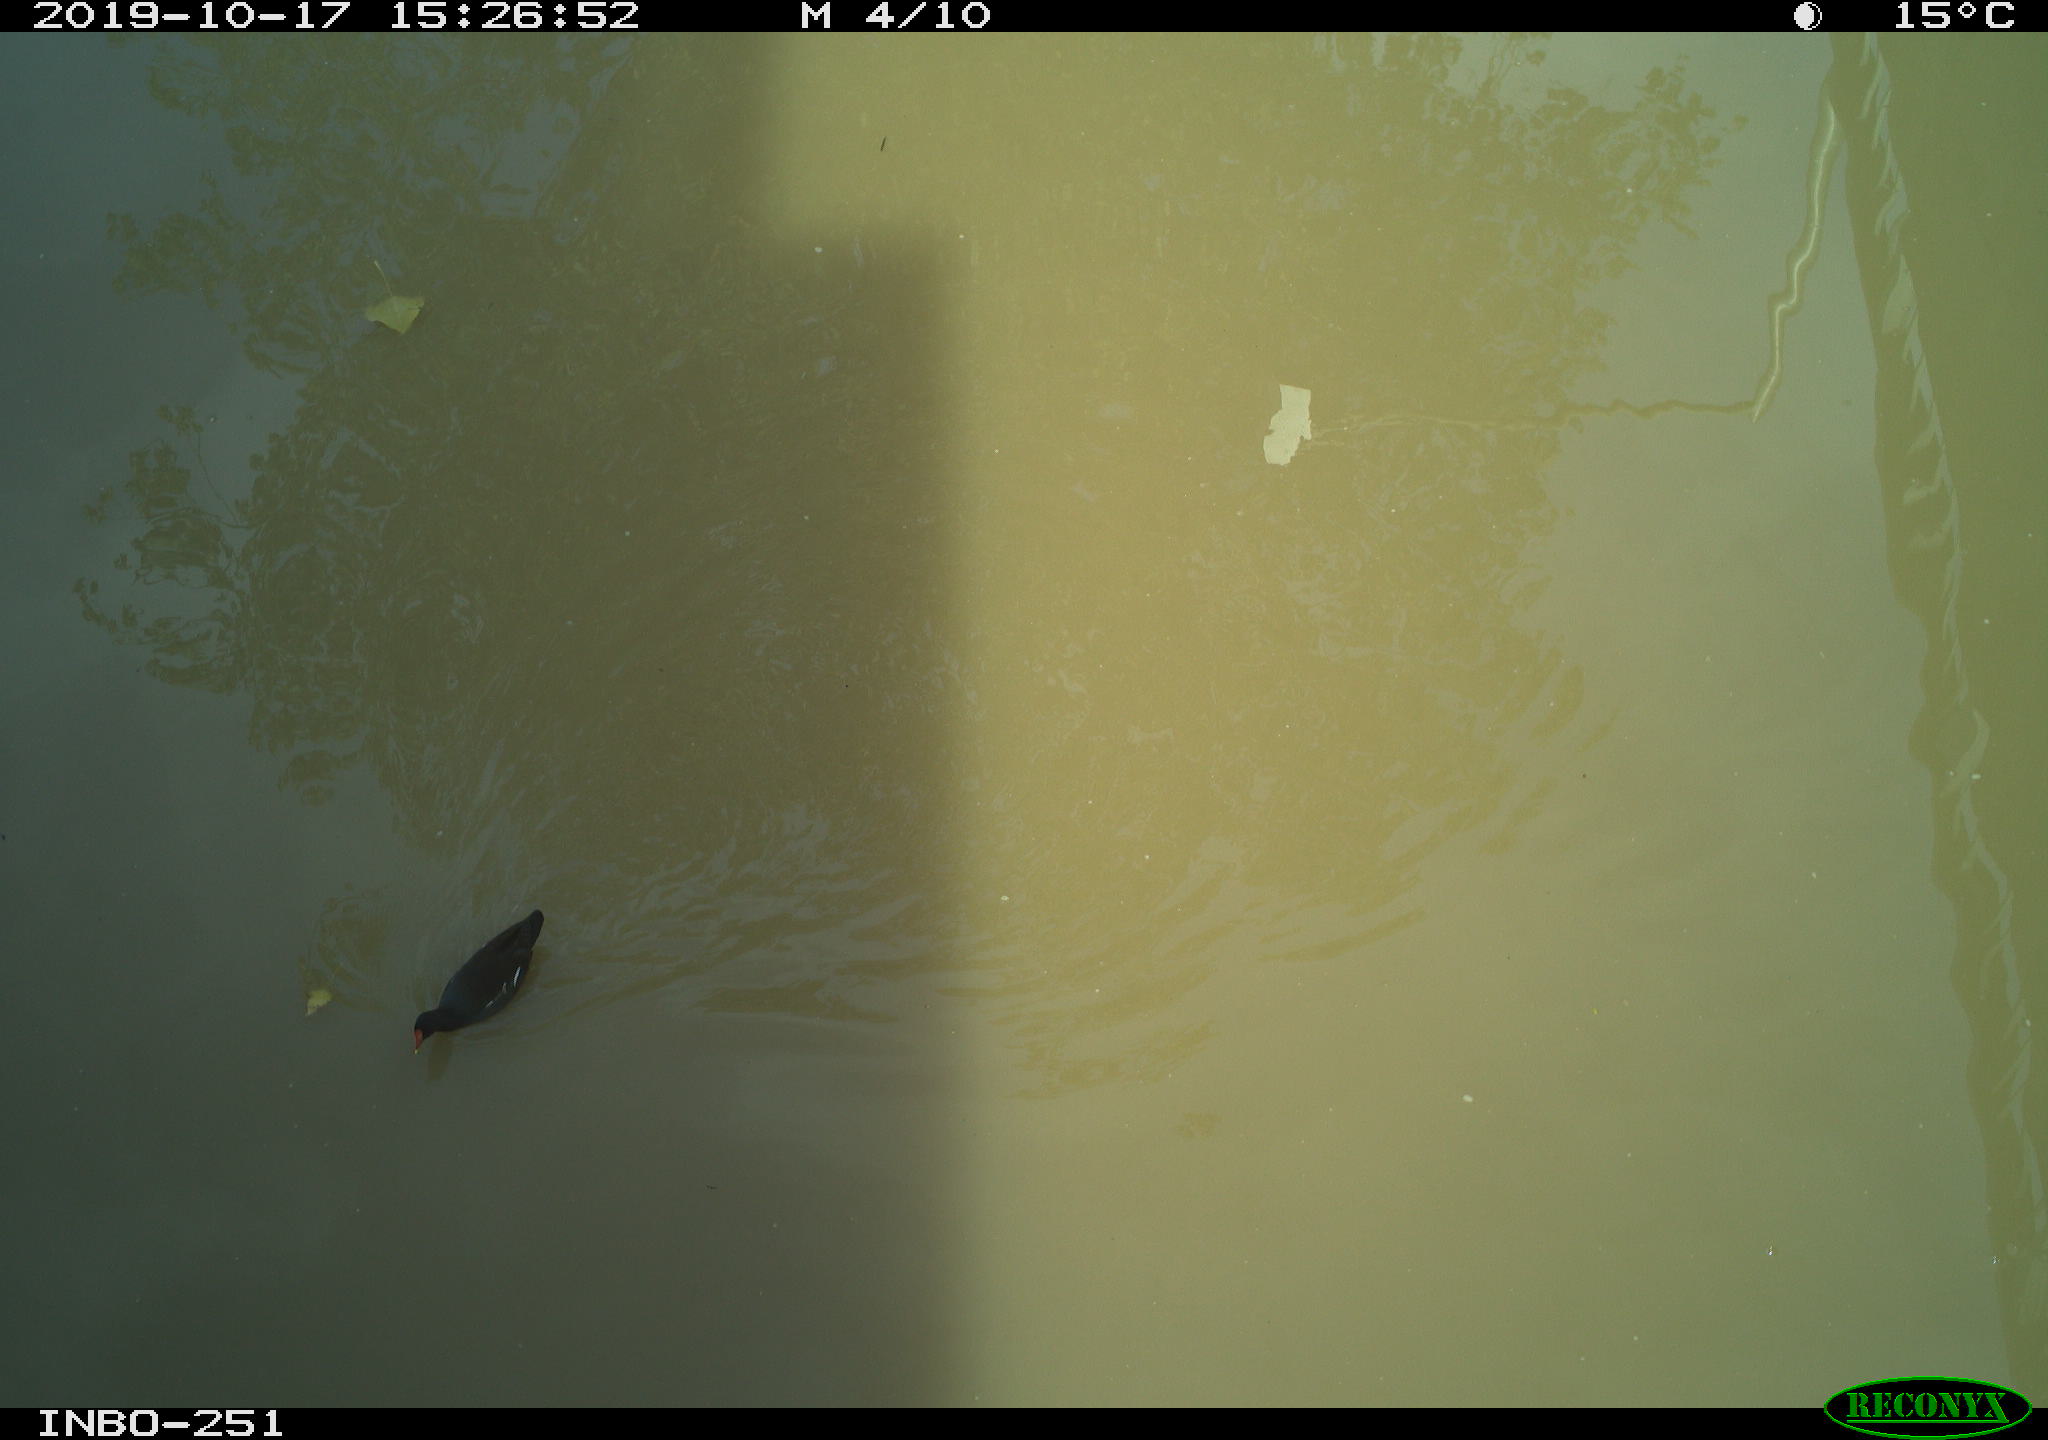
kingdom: Animalia
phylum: Chordata
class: Aves
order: Gruiformes
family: Rallidae
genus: Gallinula
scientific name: Gallinula chloropus
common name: Common moorhen
